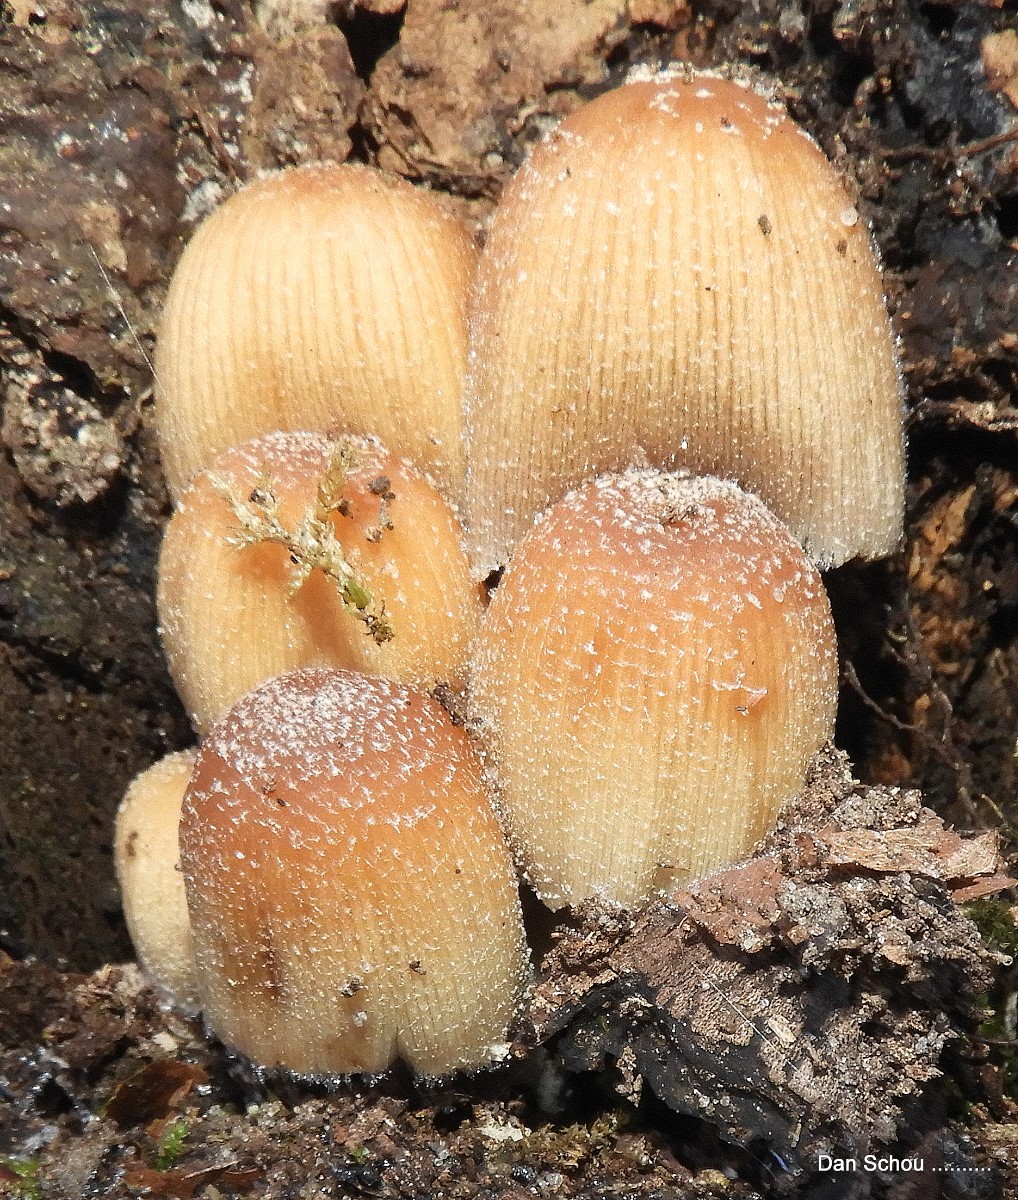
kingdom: Fungi
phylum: Basidiomycota
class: Agaricomycetes
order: Agaricales
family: Psathyrellaceae
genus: Coprinellus
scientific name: Coprinellus micaceus
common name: glimmer-blækhat
